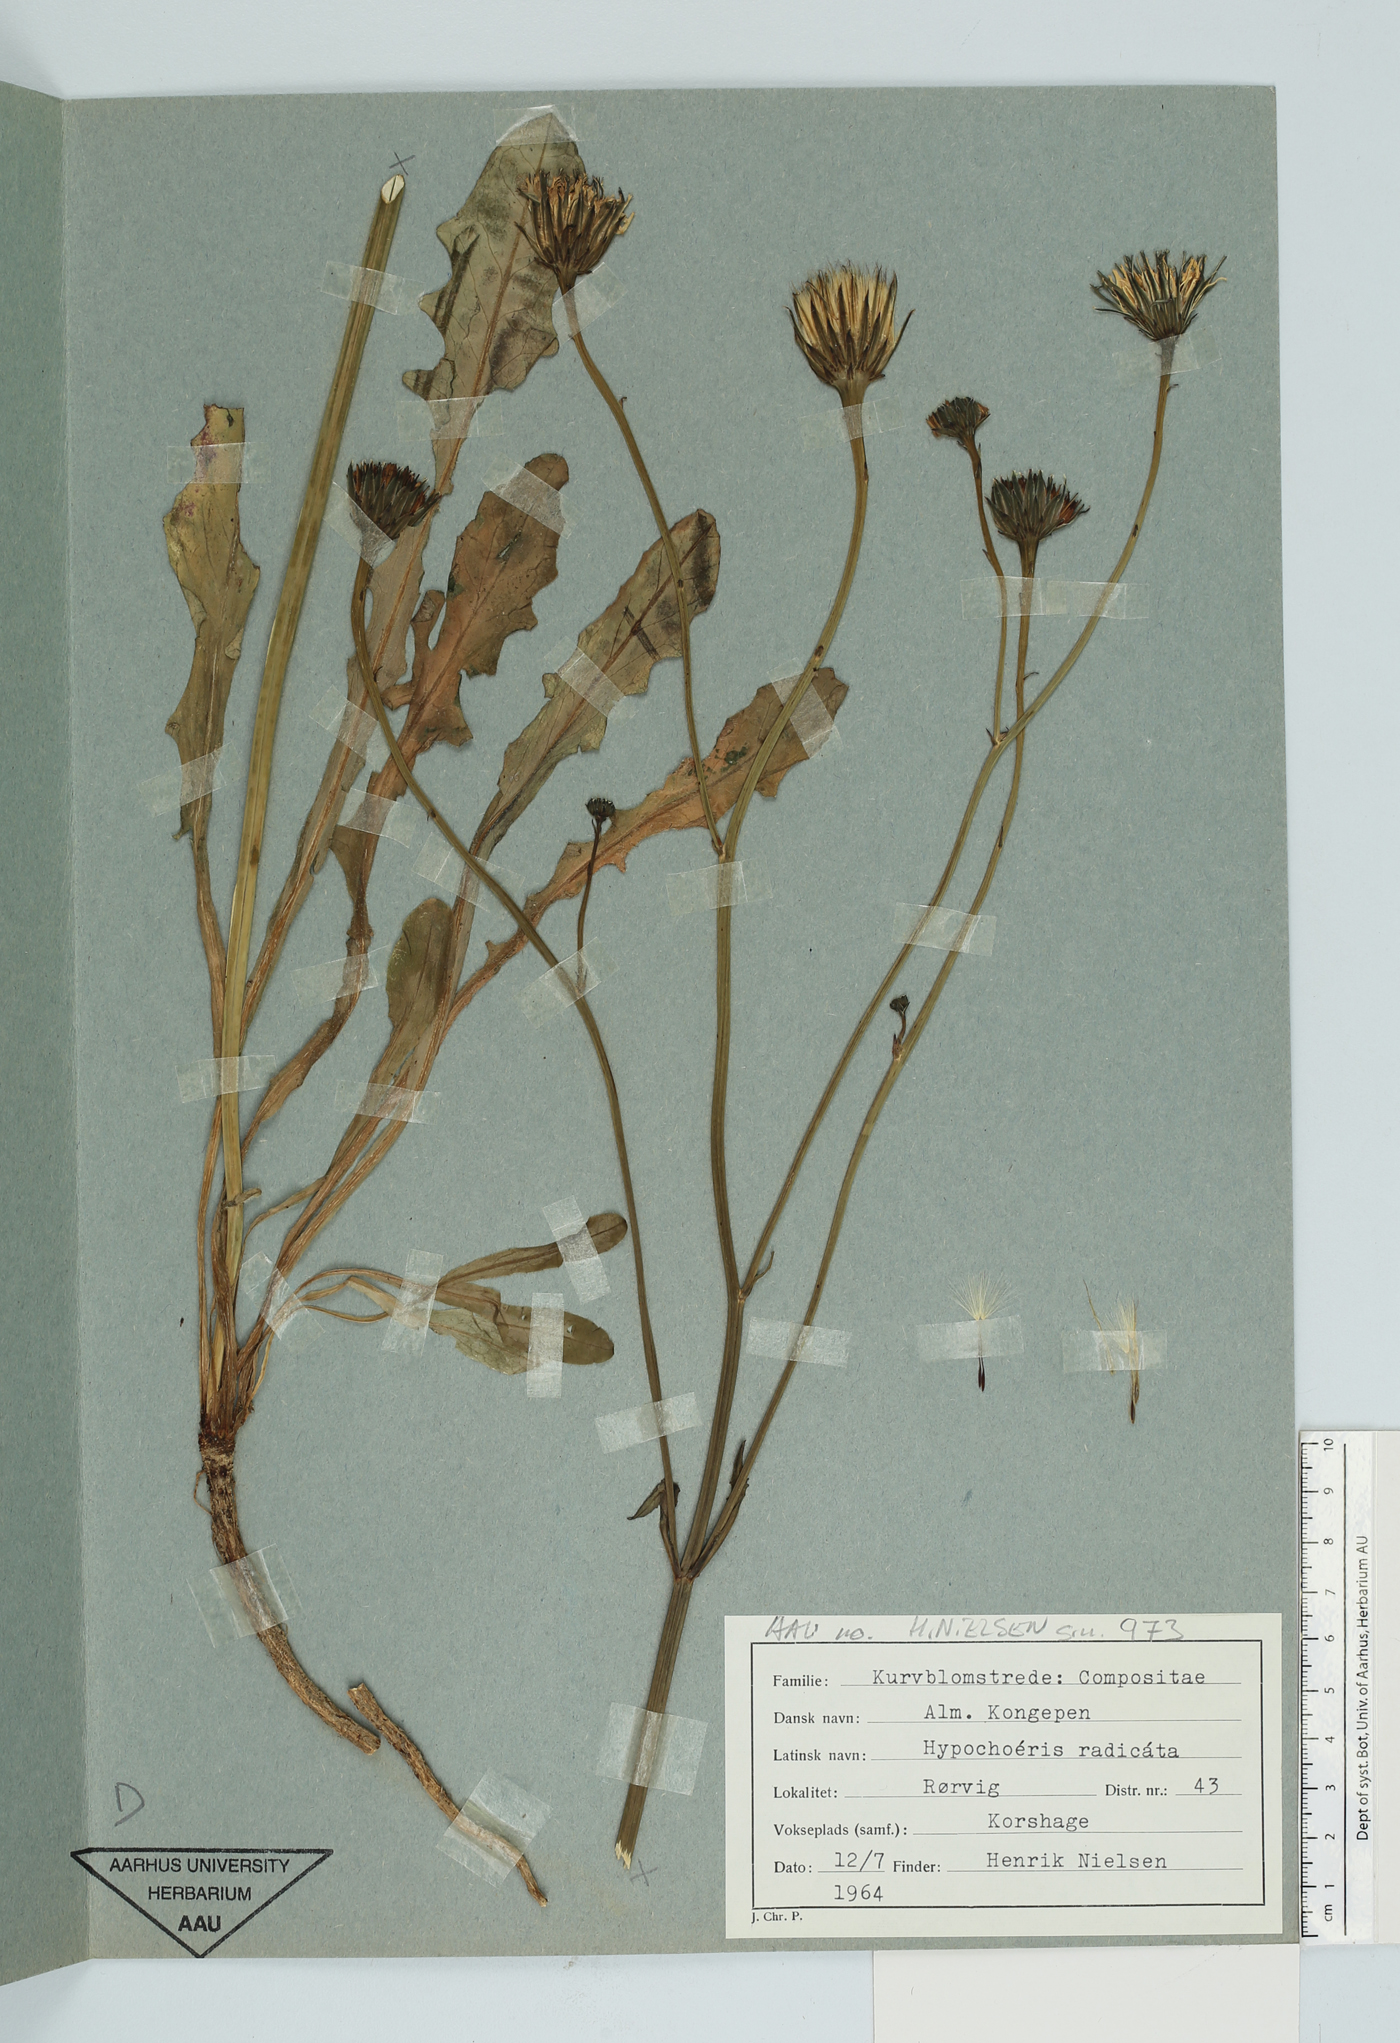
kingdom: Plantae
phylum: Tracheophyta
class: Magnoliopsida
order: Asterales
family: Asteraceae
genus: Hypochoeris
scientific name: Hypochoeris radicata
